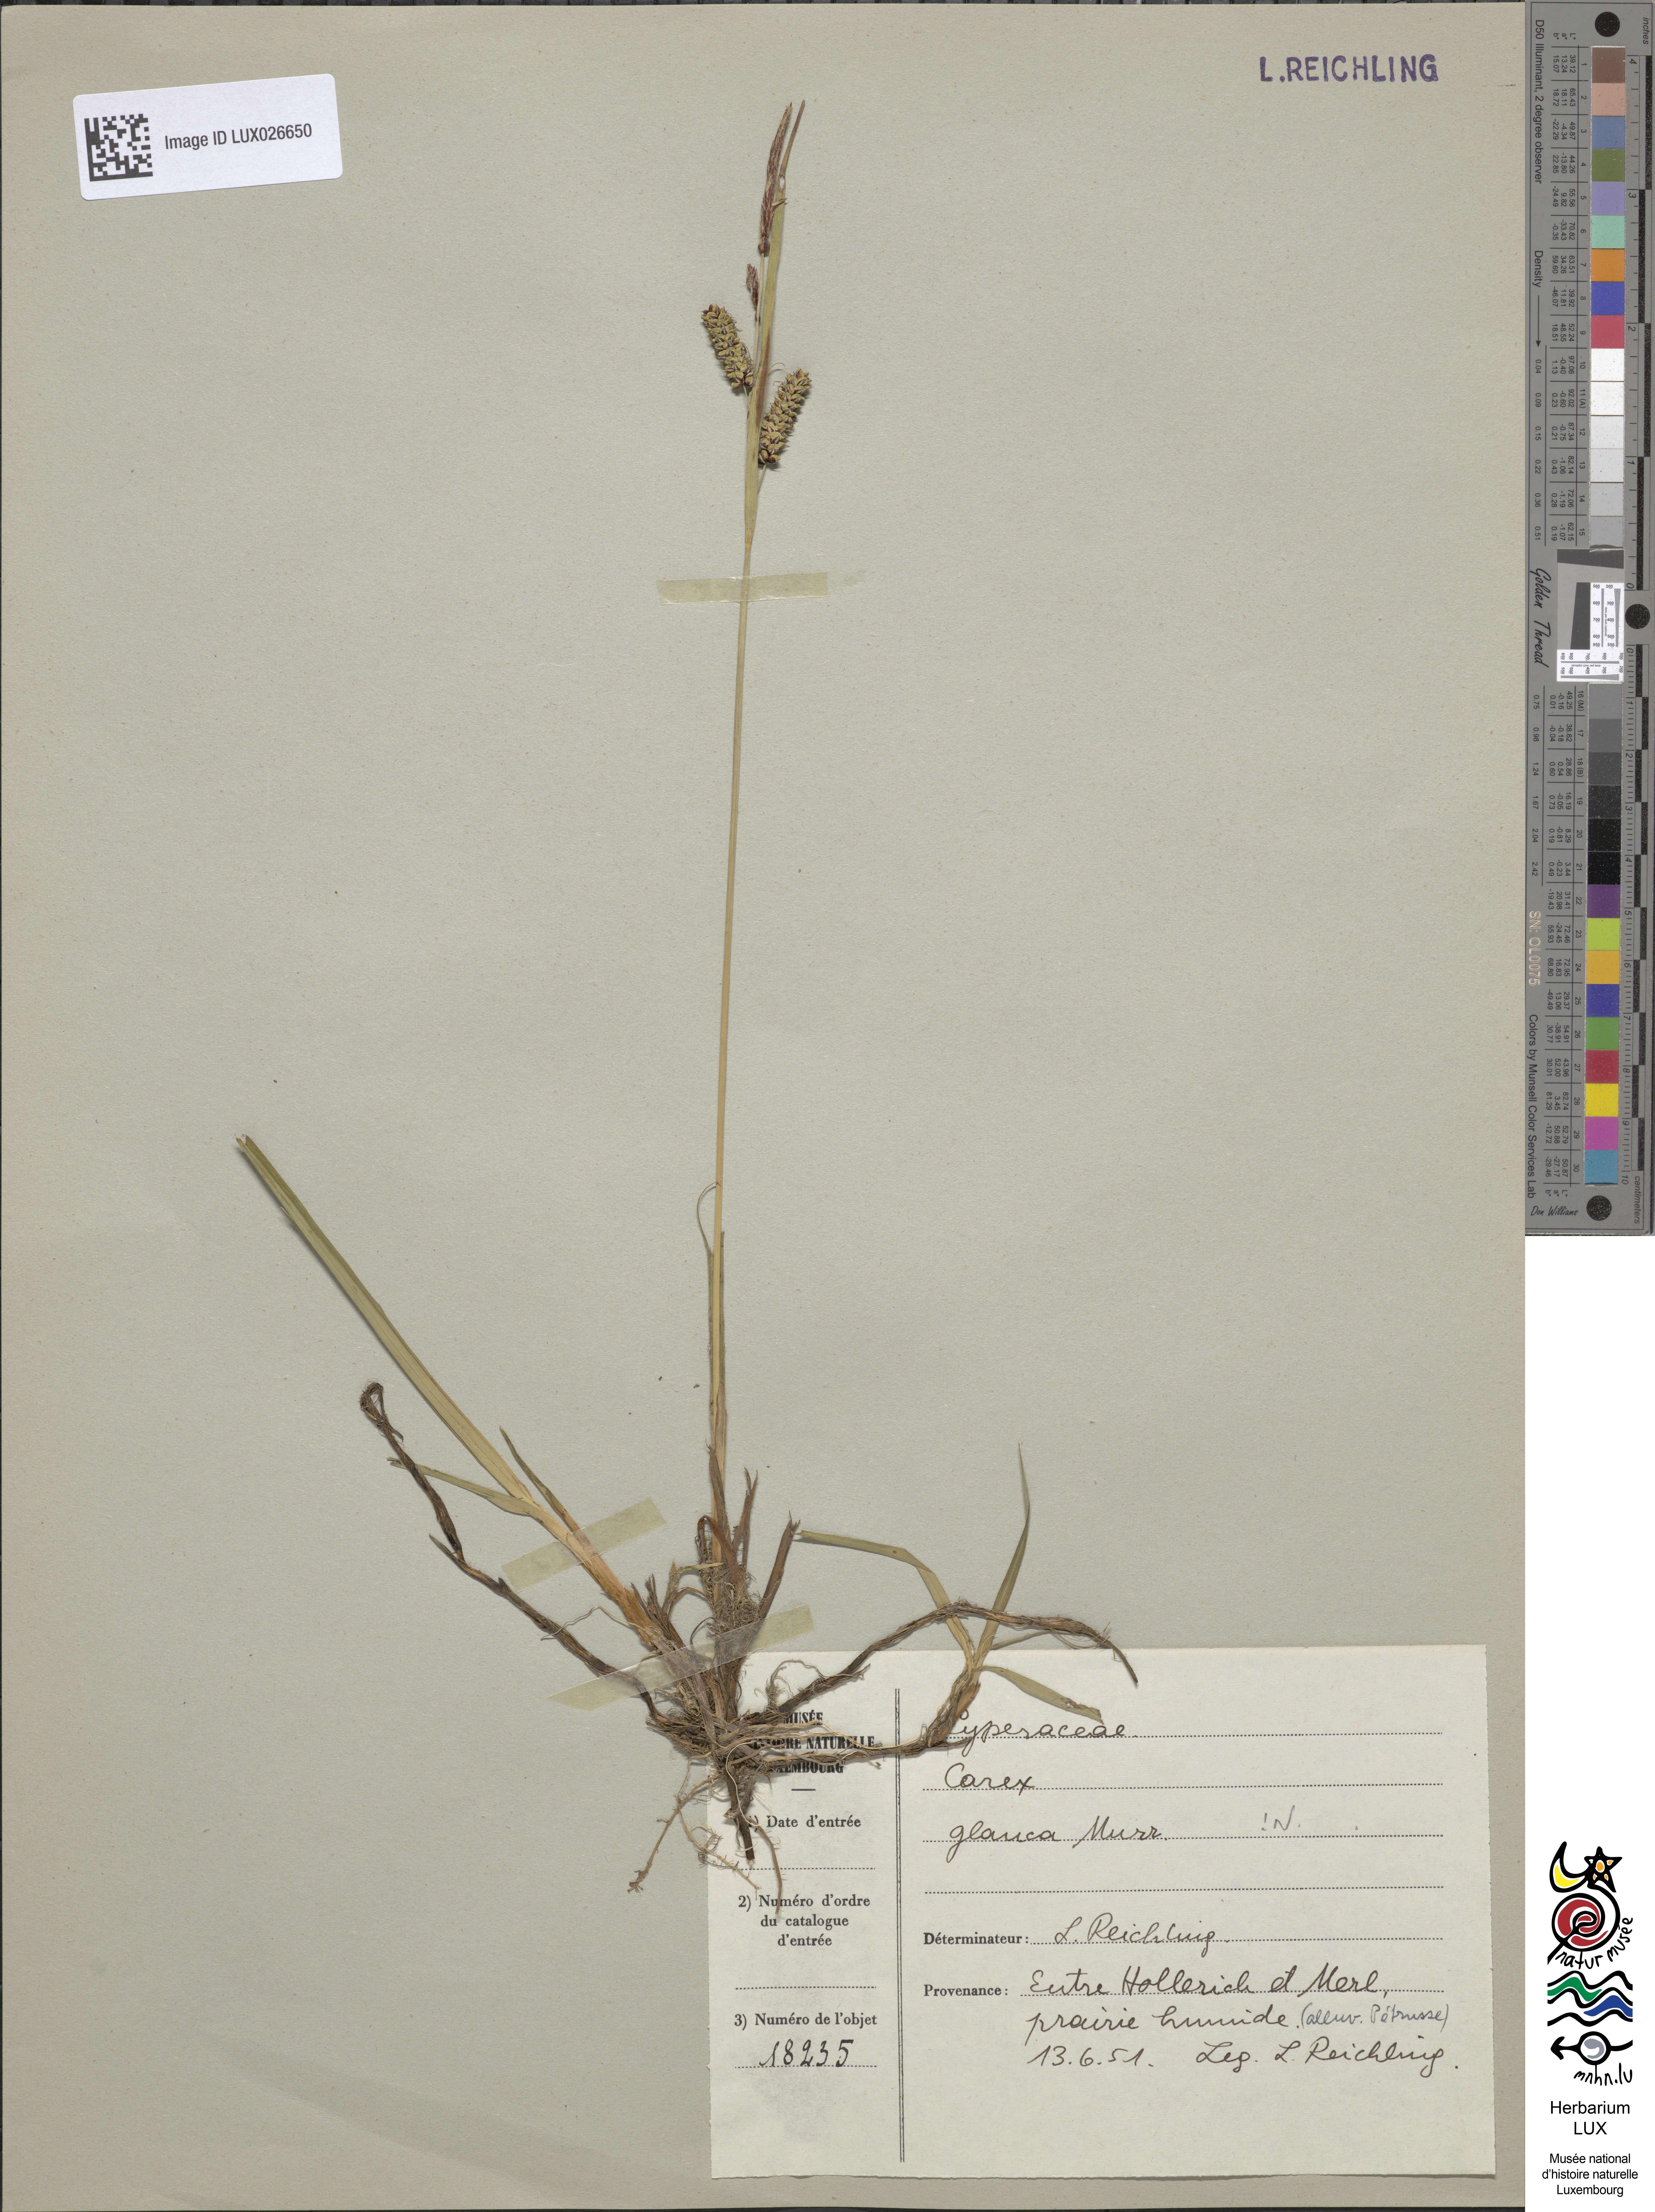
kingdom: Plantae
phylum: Tracheophyta
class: Liliopsida
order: Poales
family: Cyperaceae
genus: Carex
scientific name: Carex flacca
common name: Glaucous sedge
